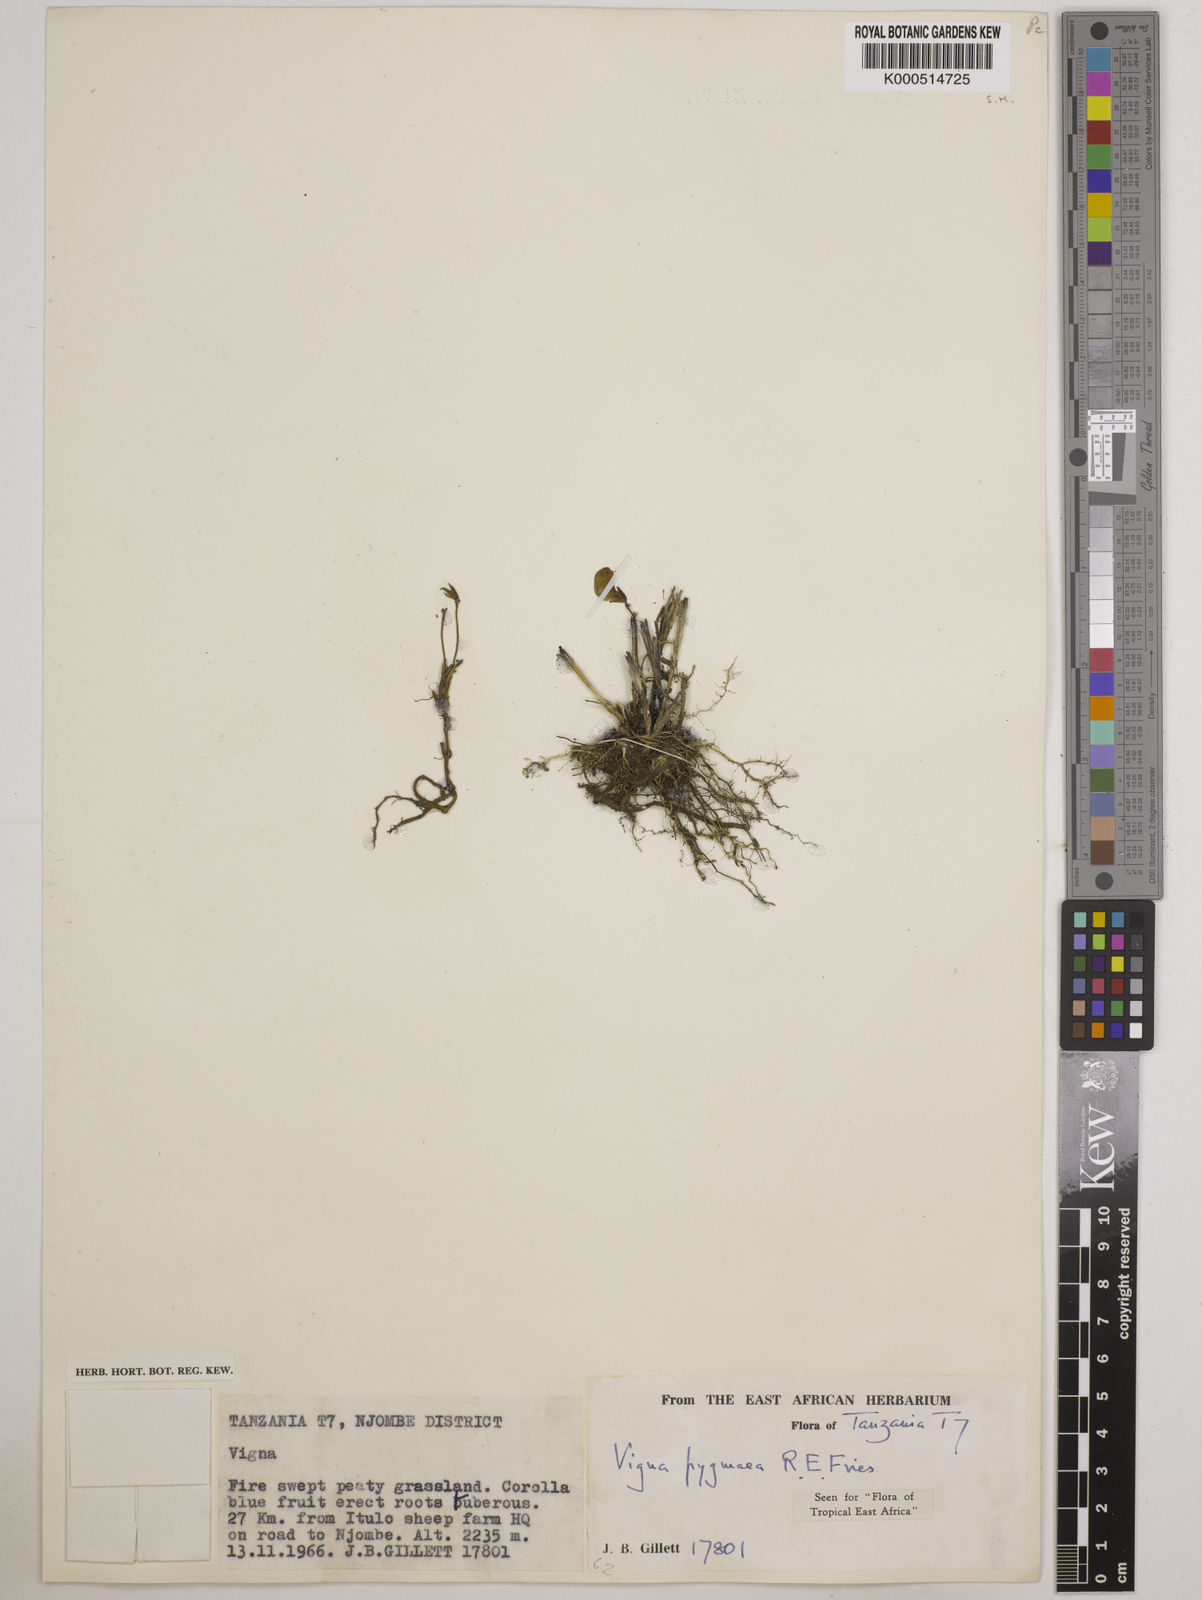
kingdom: Plantae
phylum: Tracheophyta
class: Magnoliopsida
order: Fabales
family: Fabaceae
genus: Vigna
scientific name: Vigna pygmaea
